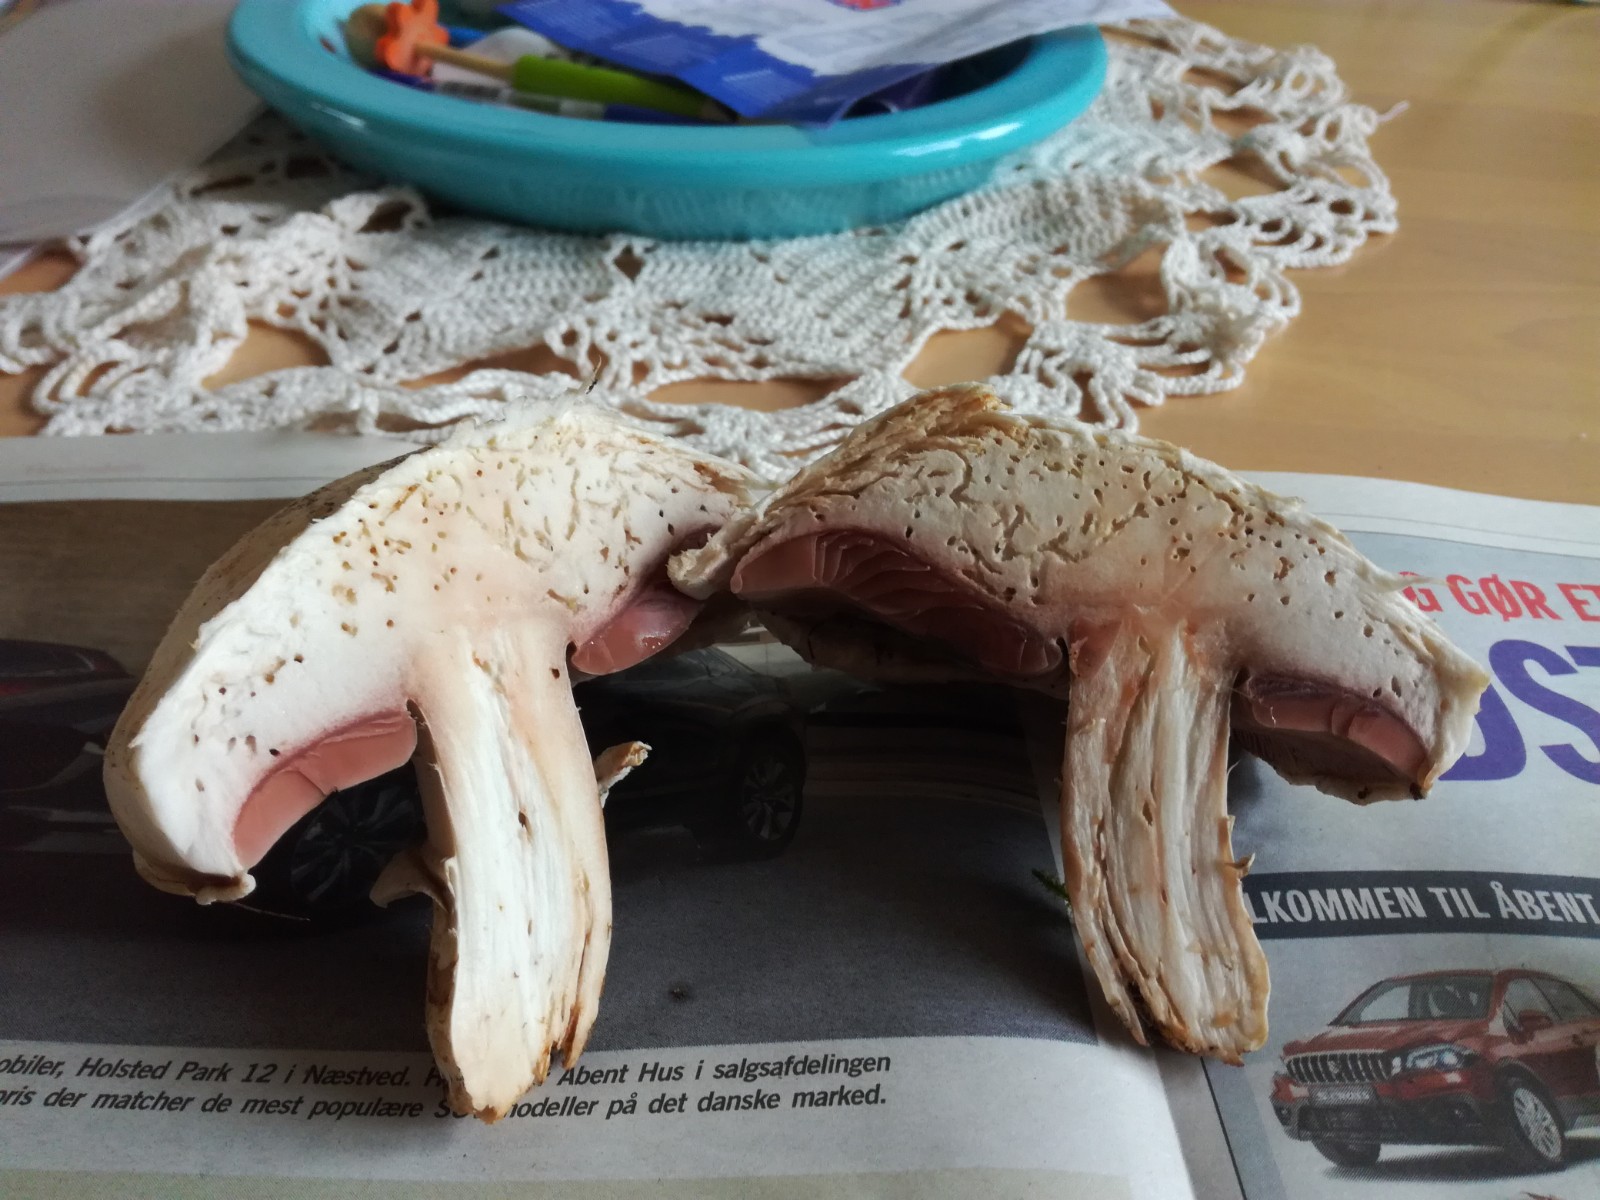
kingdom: Fungi
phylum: Basidiomycota
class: Agaricomycetes
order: Agaricales
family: Agaricaceae
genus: Agaricus
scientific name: Agaricus
